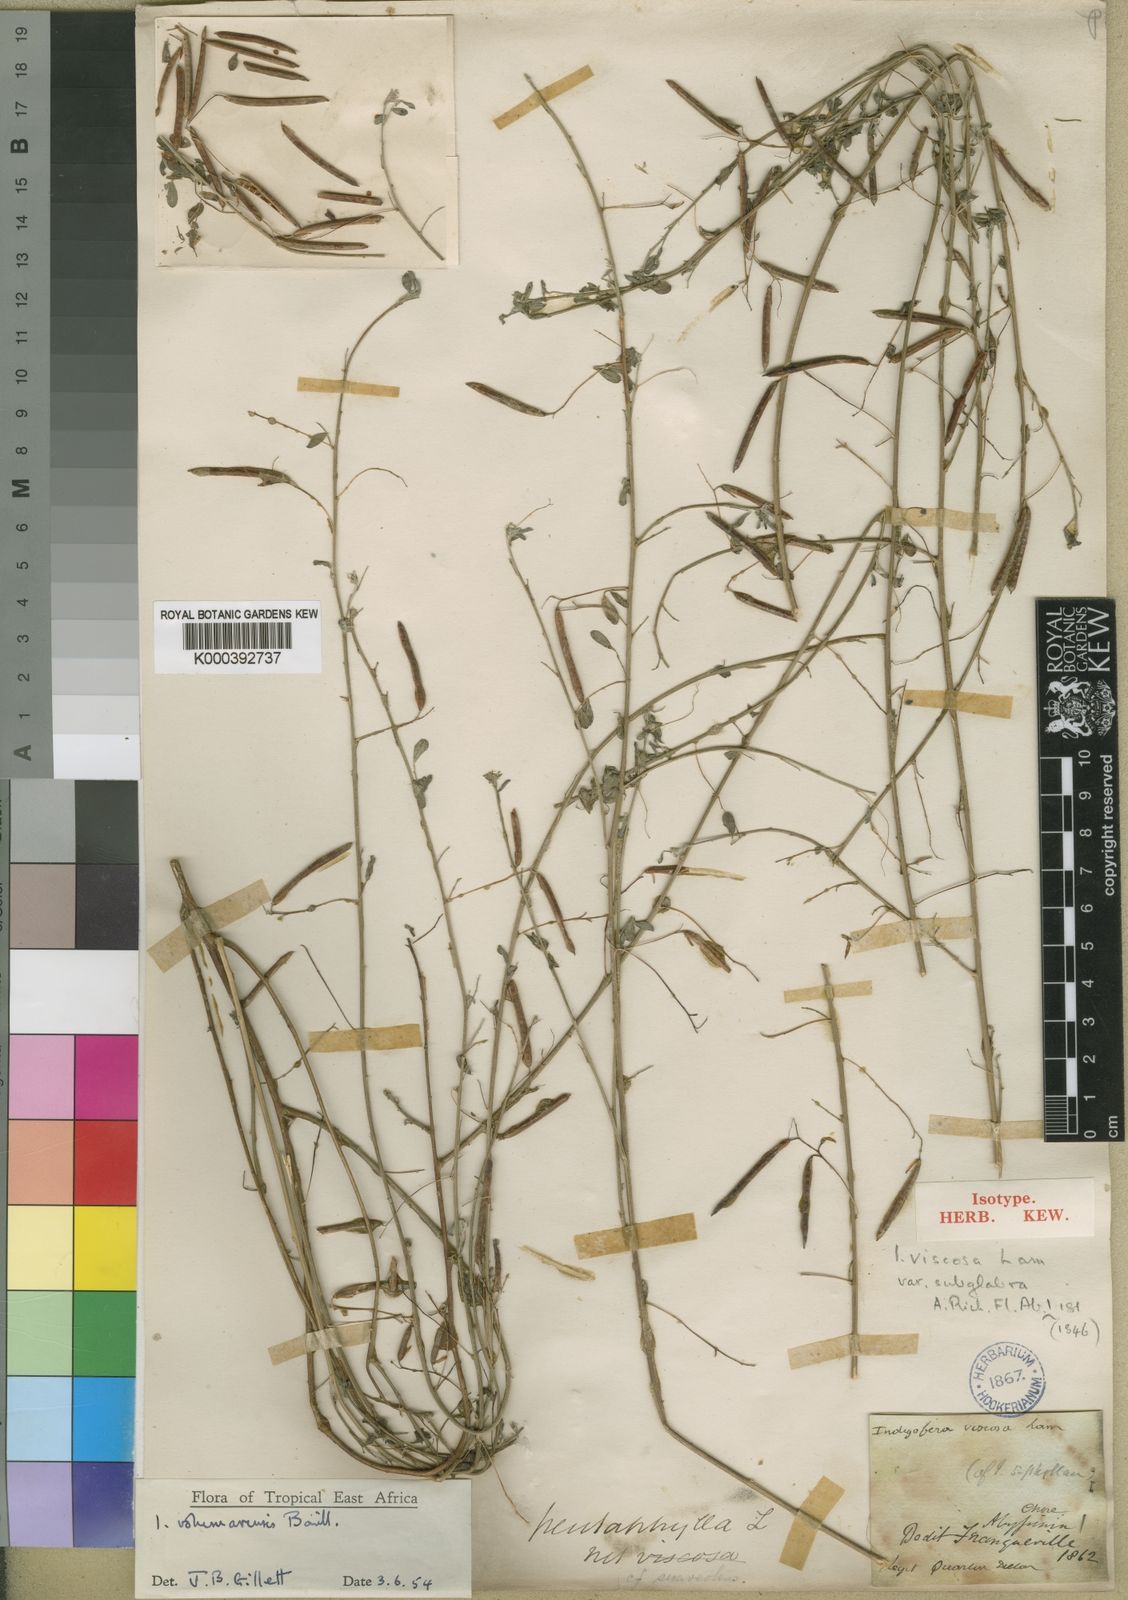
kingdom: Plantae
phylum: Tracheophyta
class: Magnoliopsida
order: Fabales
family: Fabaceae
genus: Indigofera
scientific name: Indigofera vohemarensis
